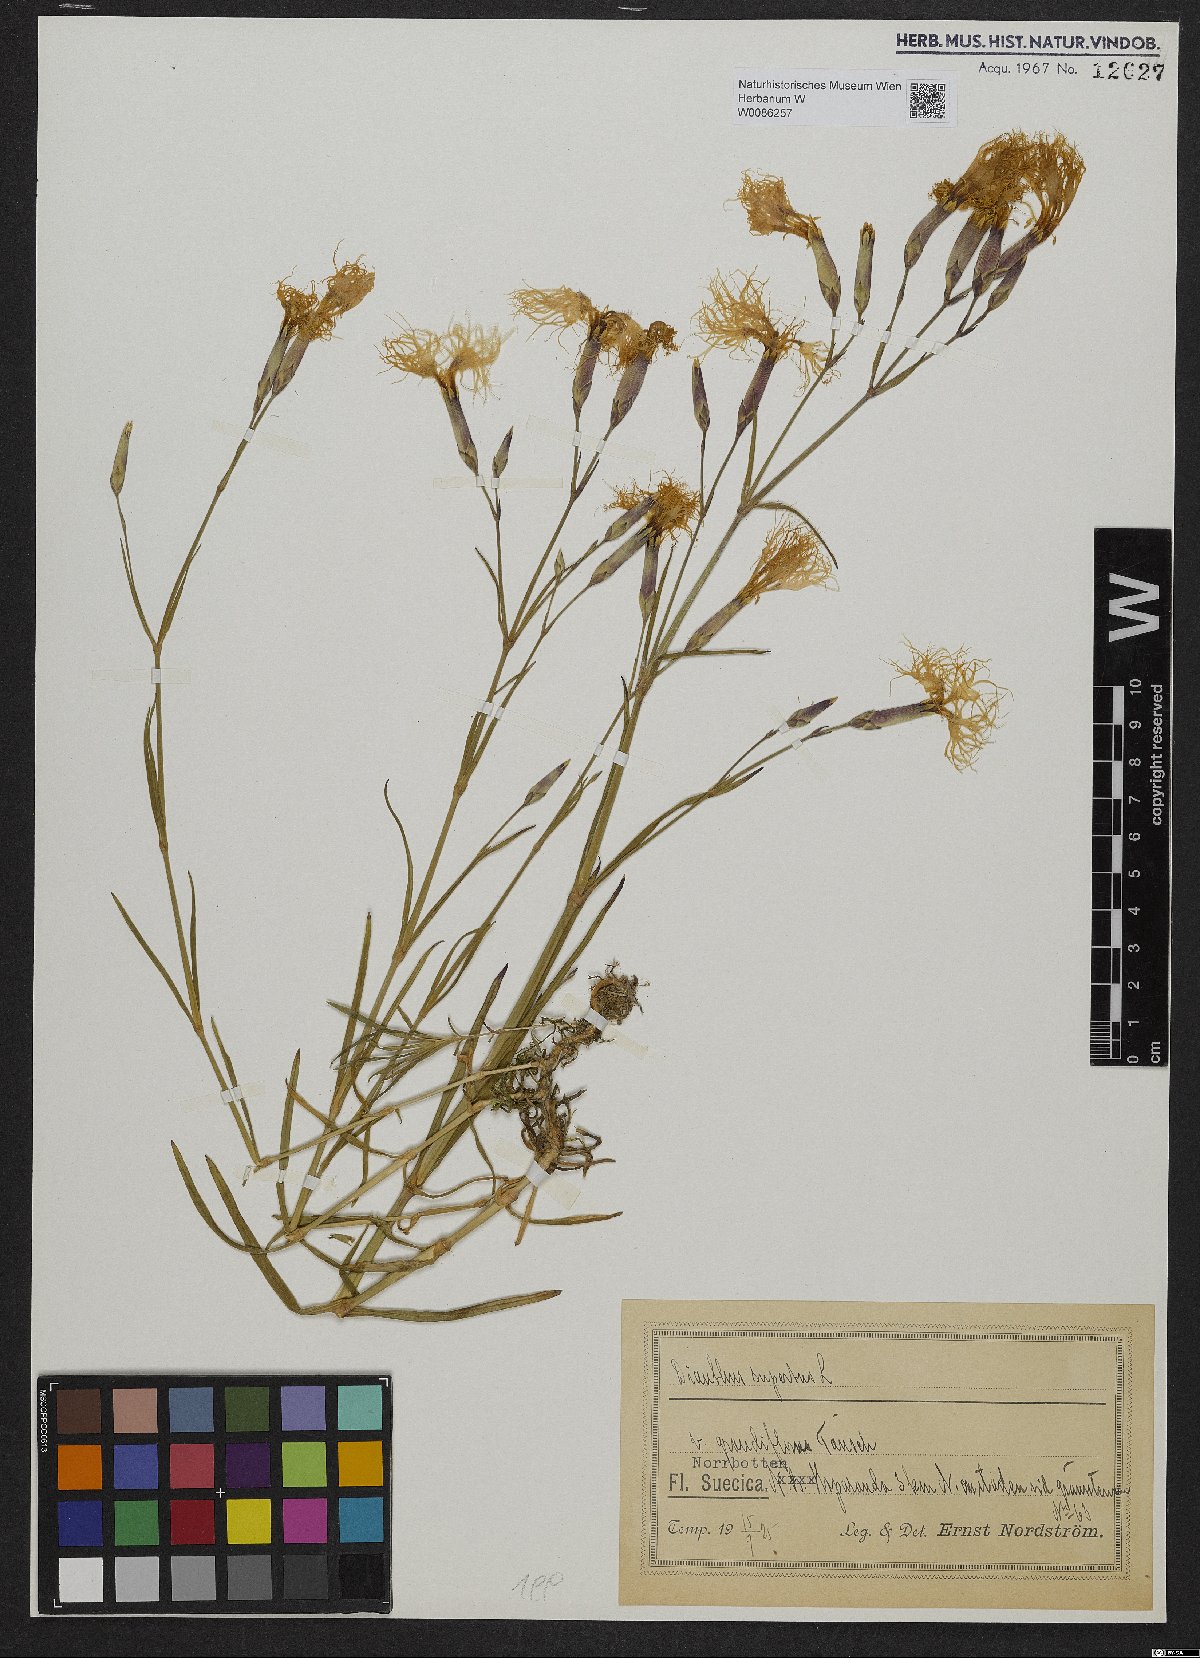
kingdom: Plantae
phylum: Tracheophyta
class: Magnoliopsida
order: Caryophyllales
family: Caryophyllaceae
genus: Dianthus
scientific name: Dianthus superbus
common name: Fringed pink
